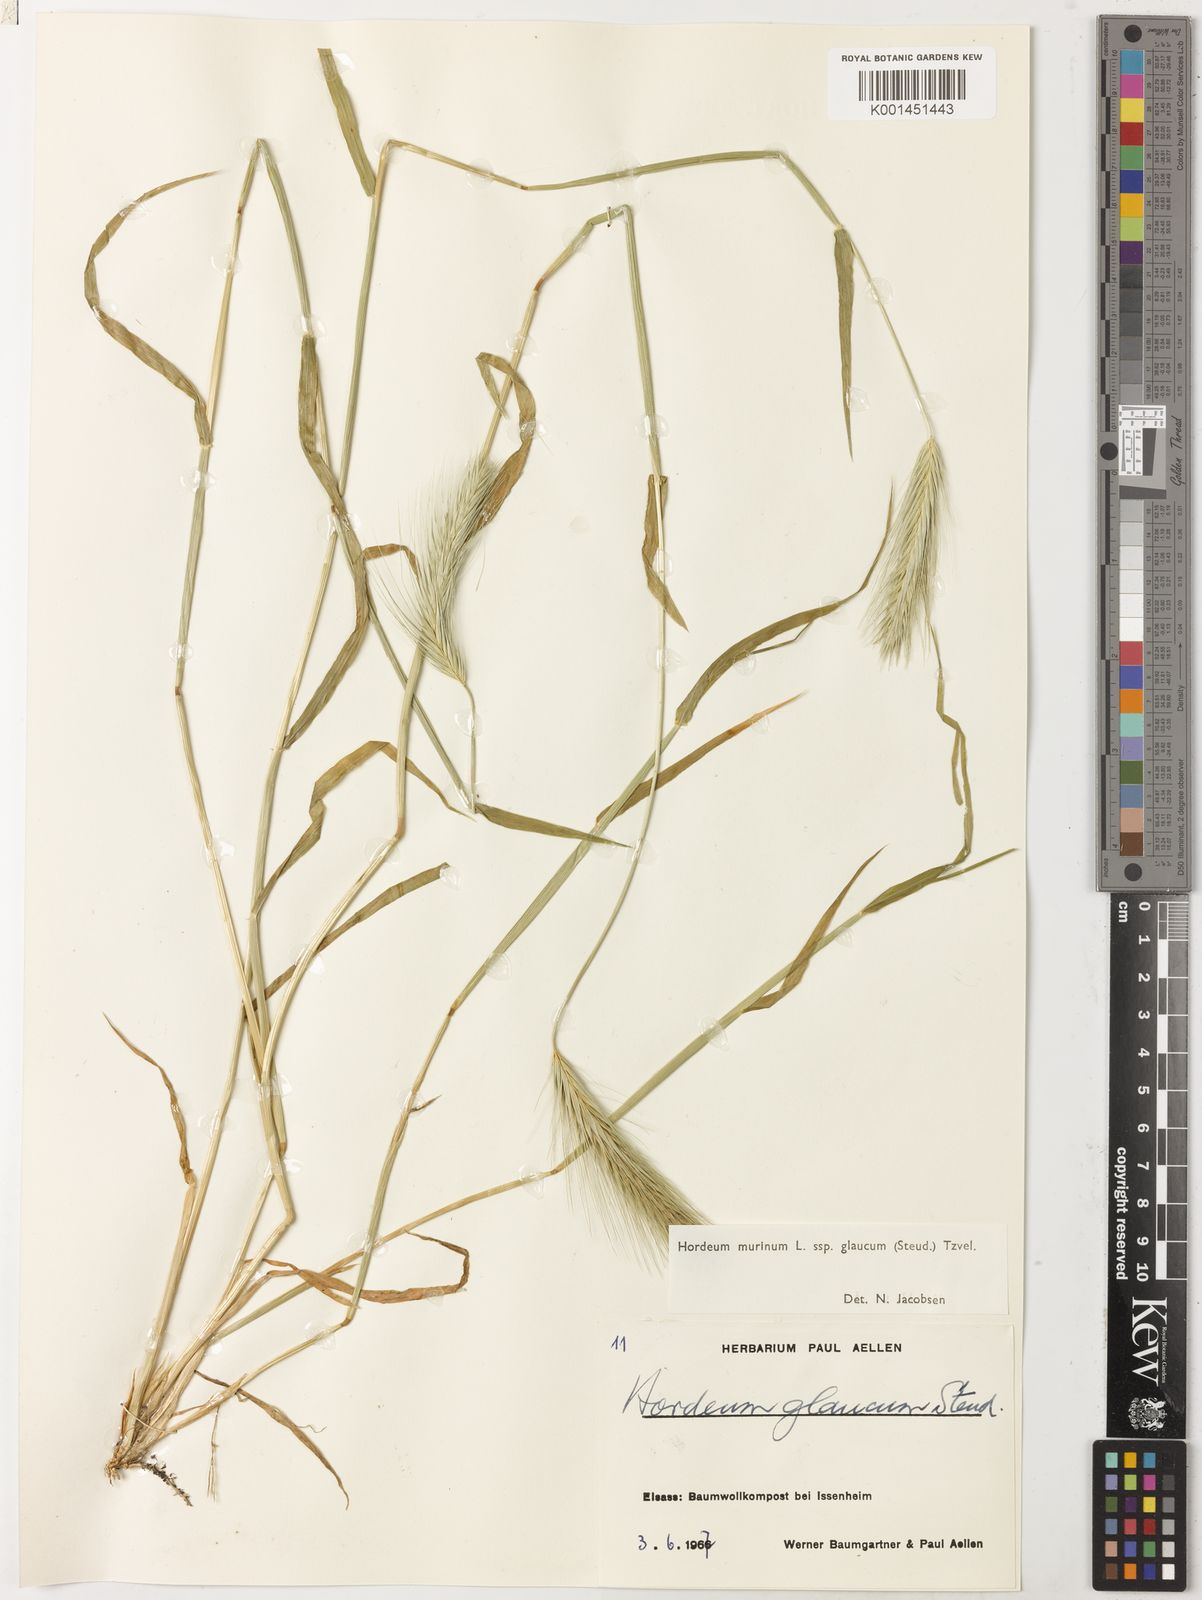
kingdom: Plantae
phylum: Tracheophyta
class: Liliopsida
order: Poales
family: Poaceae
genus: Hordeum
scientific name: Hordeum murinum
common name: Wall barley
